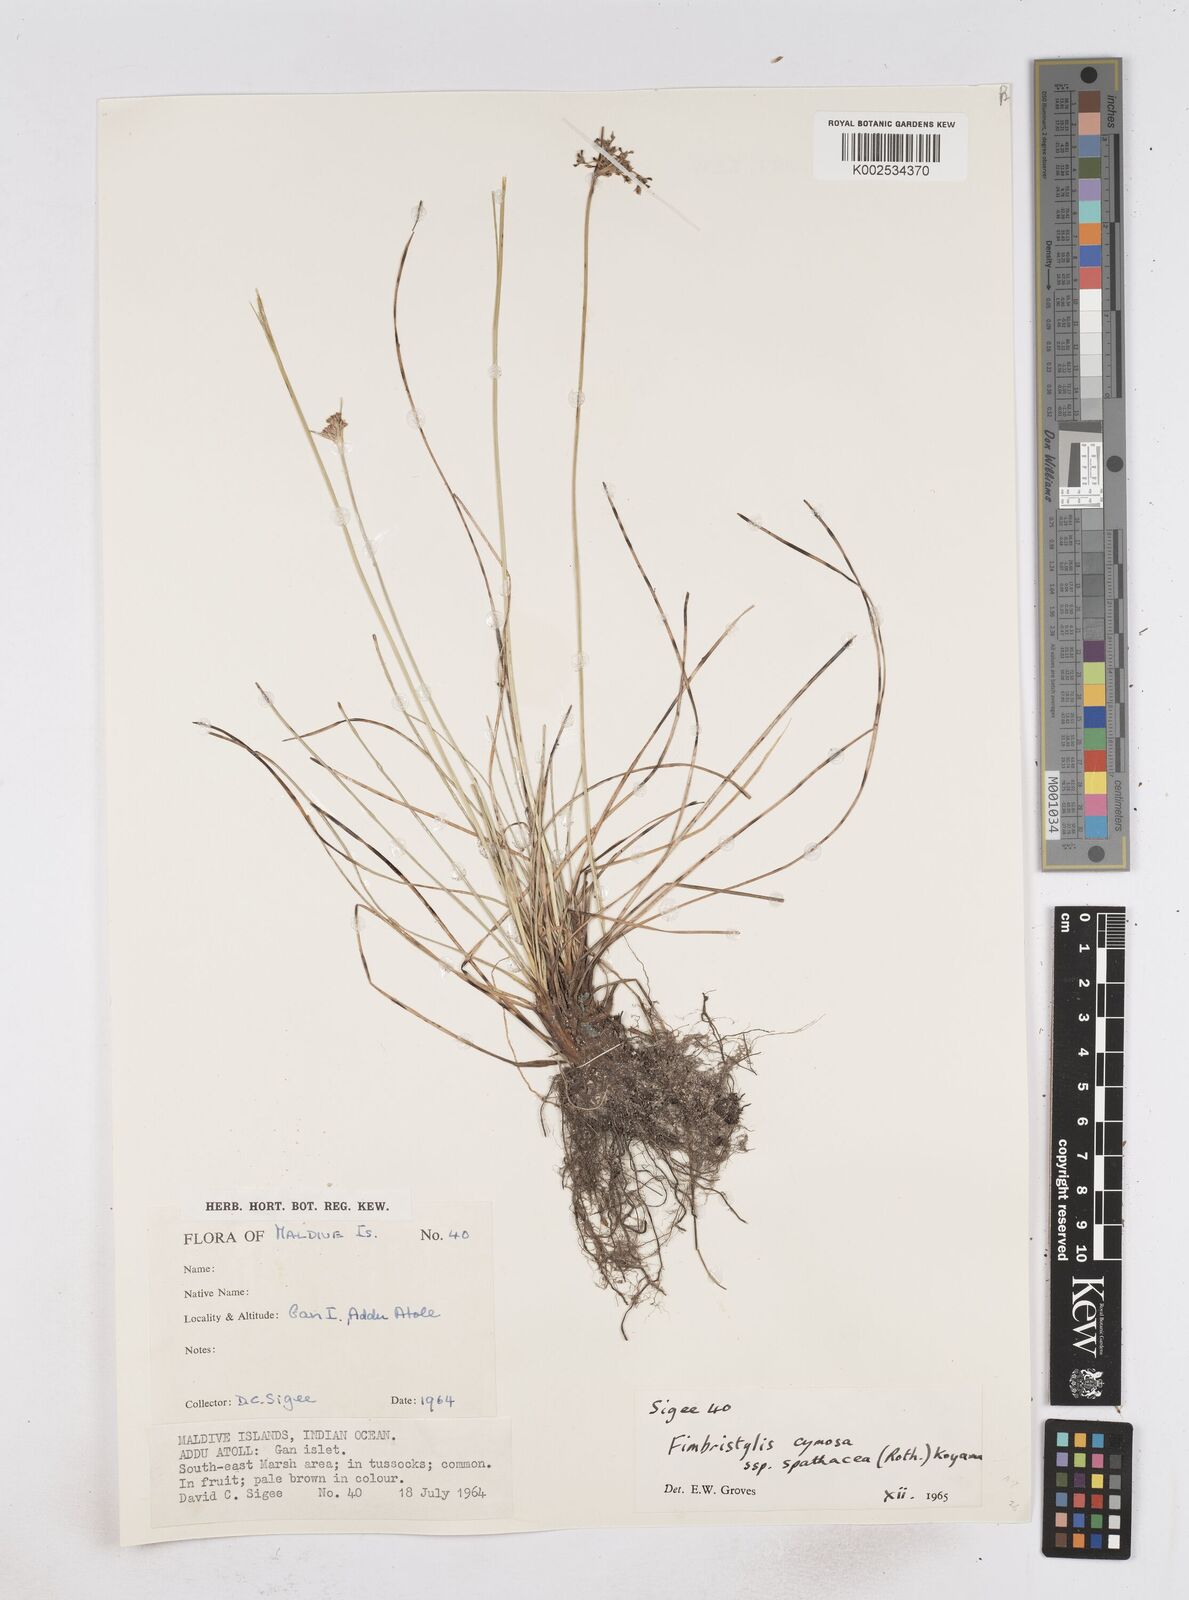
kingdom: Plantae
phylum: Tracheophyta
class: Liliopsida
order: Poales
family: Cyperaceae
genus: Fimbristylis
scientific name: Fimbristylis cymosa
